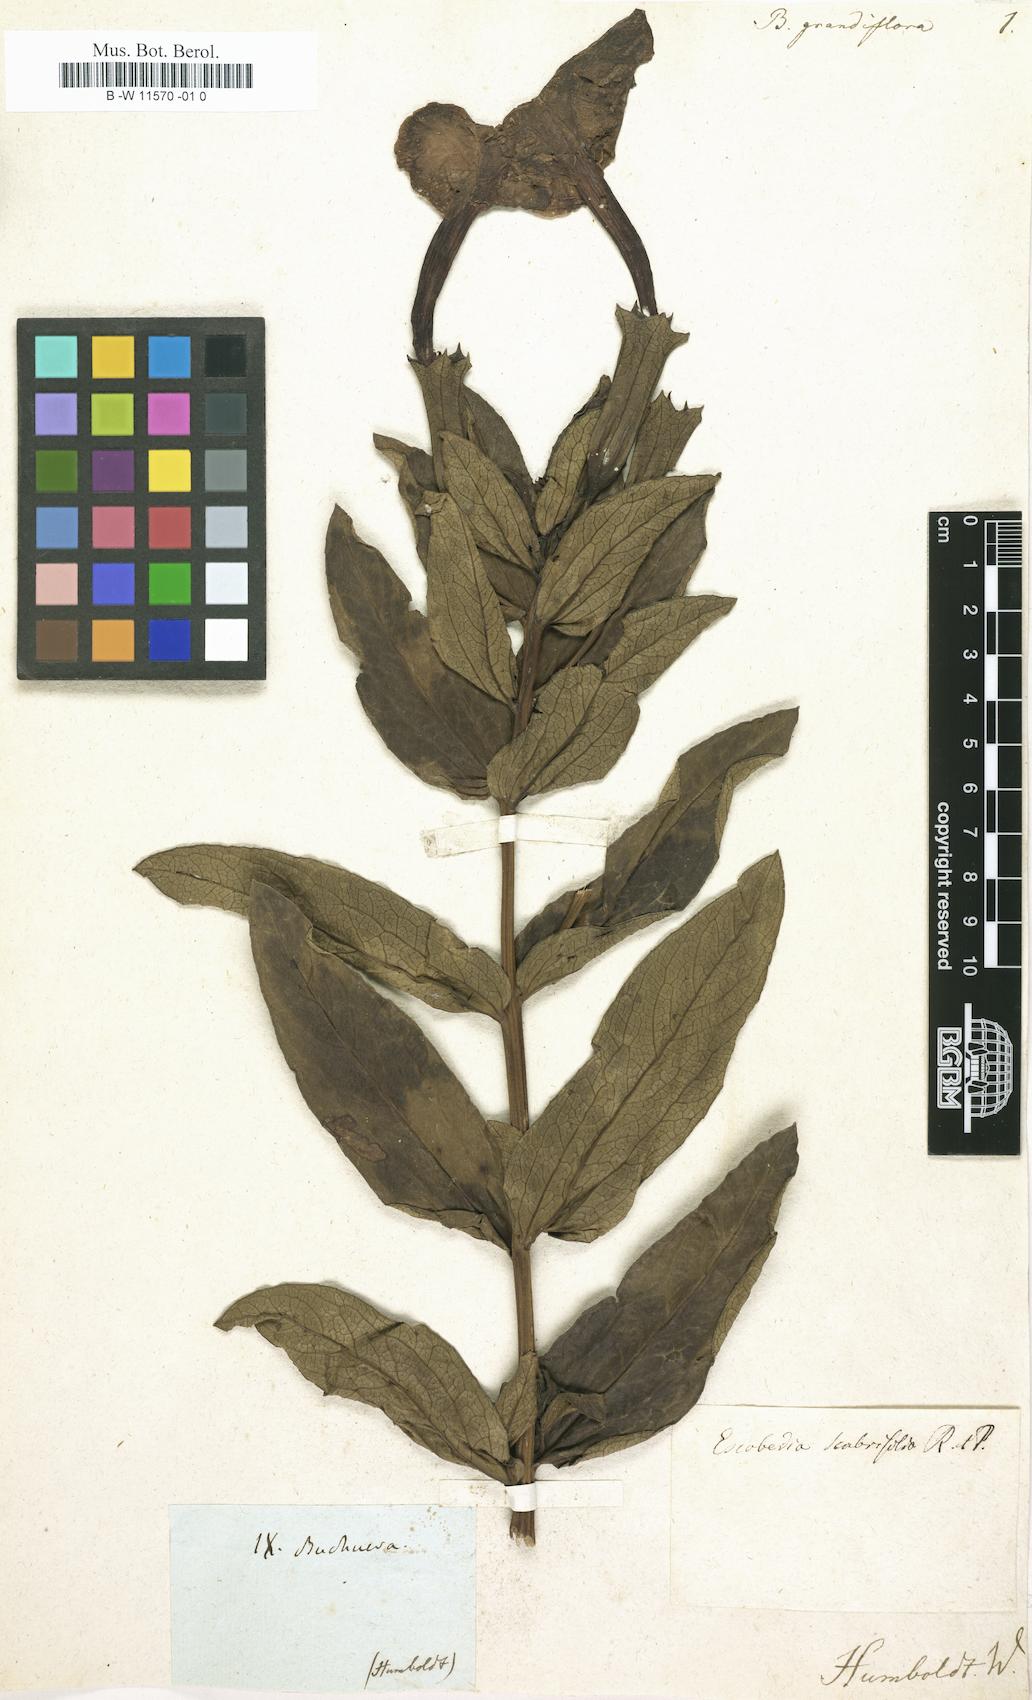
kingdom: Plantae
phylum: Tracheophyta
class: Magnoliopsida
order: Lamiales
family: Orobanchaceae
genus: Escobedia
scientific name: Escobedia grandiflora
